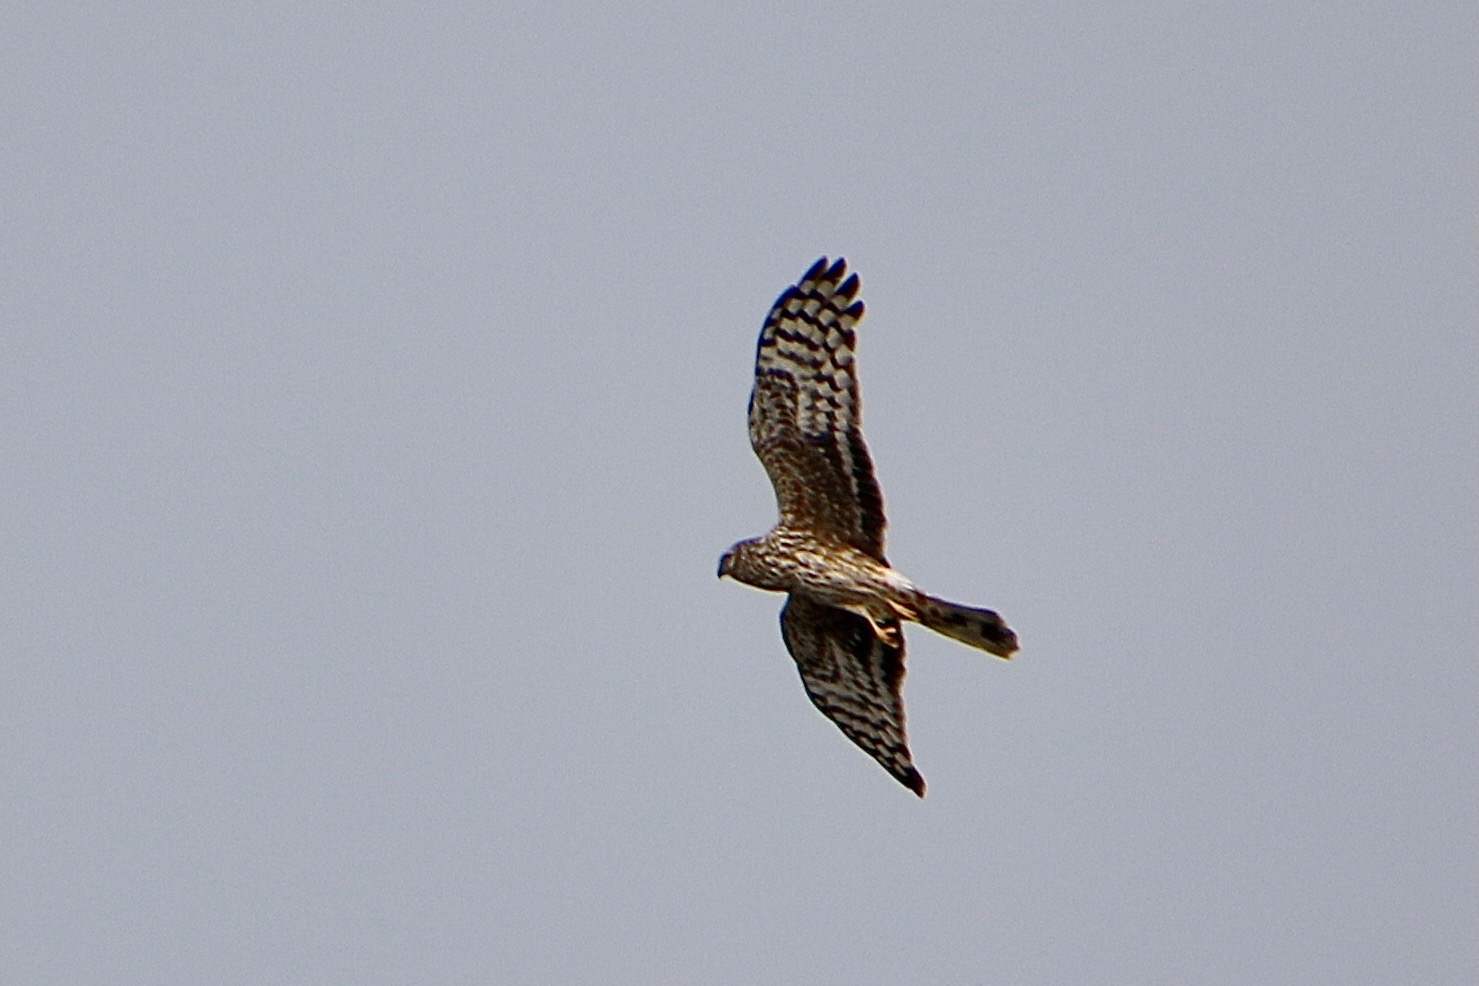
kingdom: Animalia
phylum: Chordata
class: Aves
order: Accipitriformes
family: Accipitridae
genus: Circus
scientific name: Circus cyaneus
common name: Blå kærhøg
